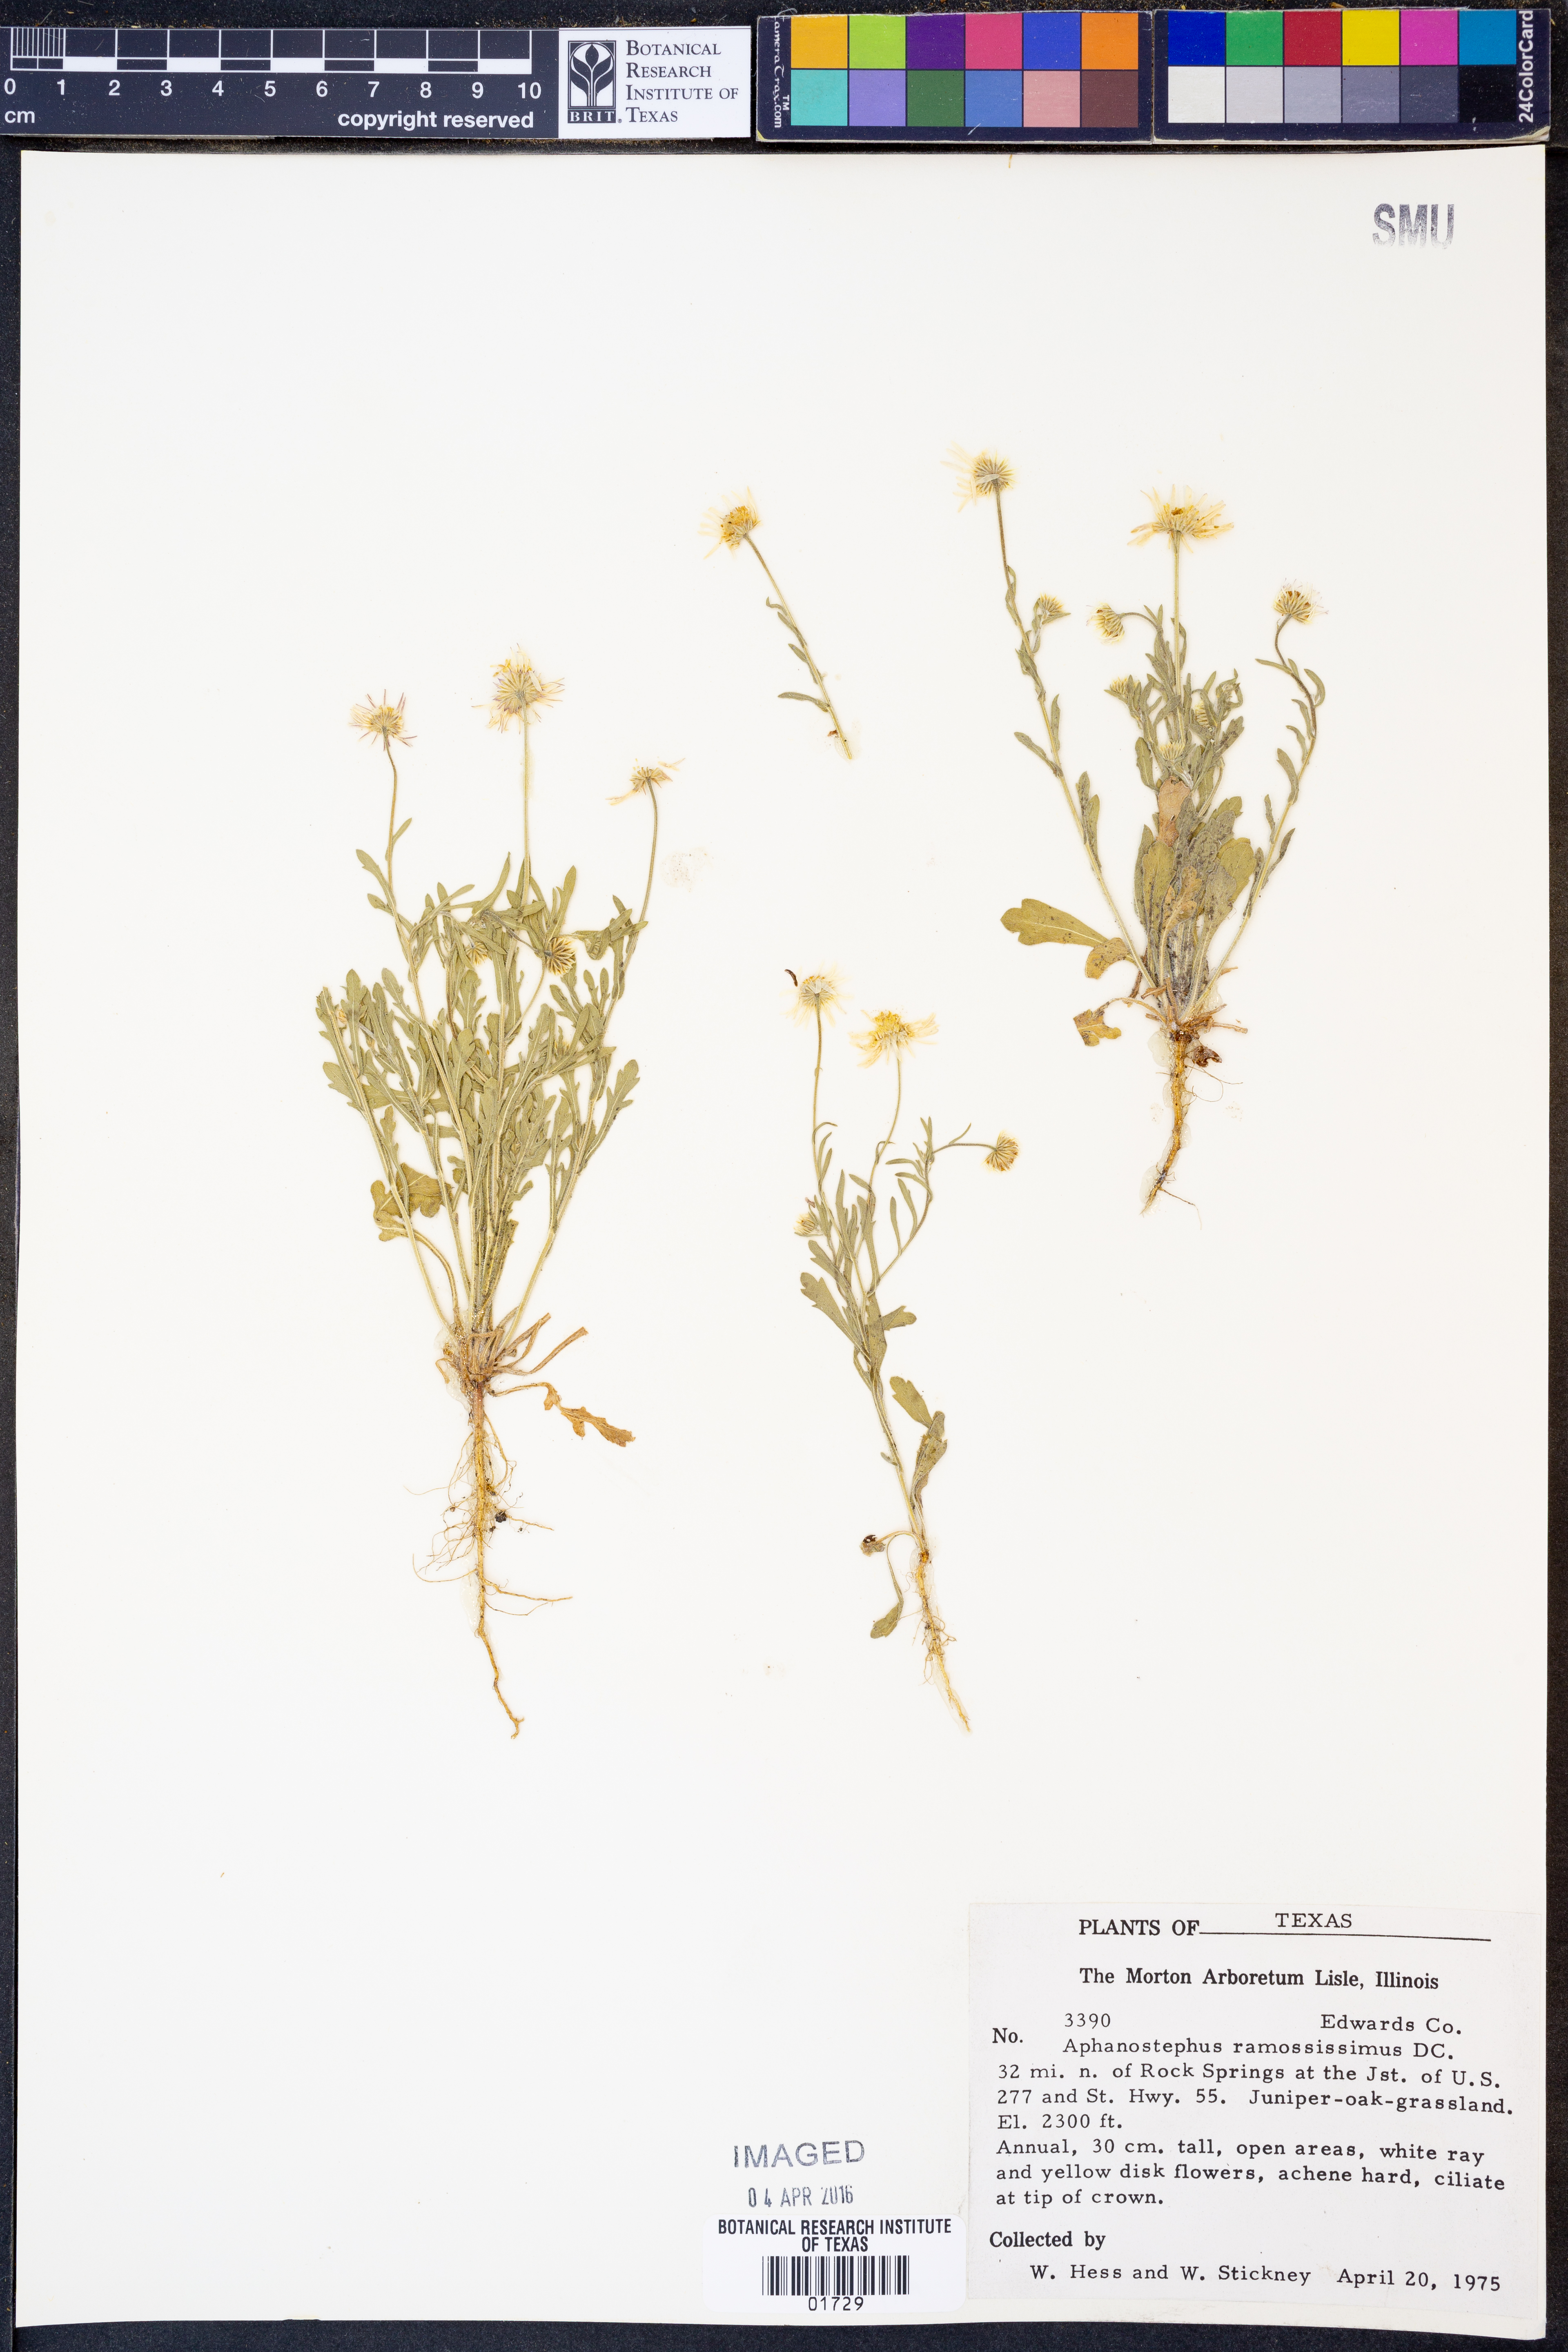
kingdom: Plantae
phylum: Tracheophyta
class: Magnoliopsida
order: Asterales
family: Asteraceae
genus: Aphanostephus
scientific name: Aphanostephus ramosissimus
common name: Plains lazy daisy
